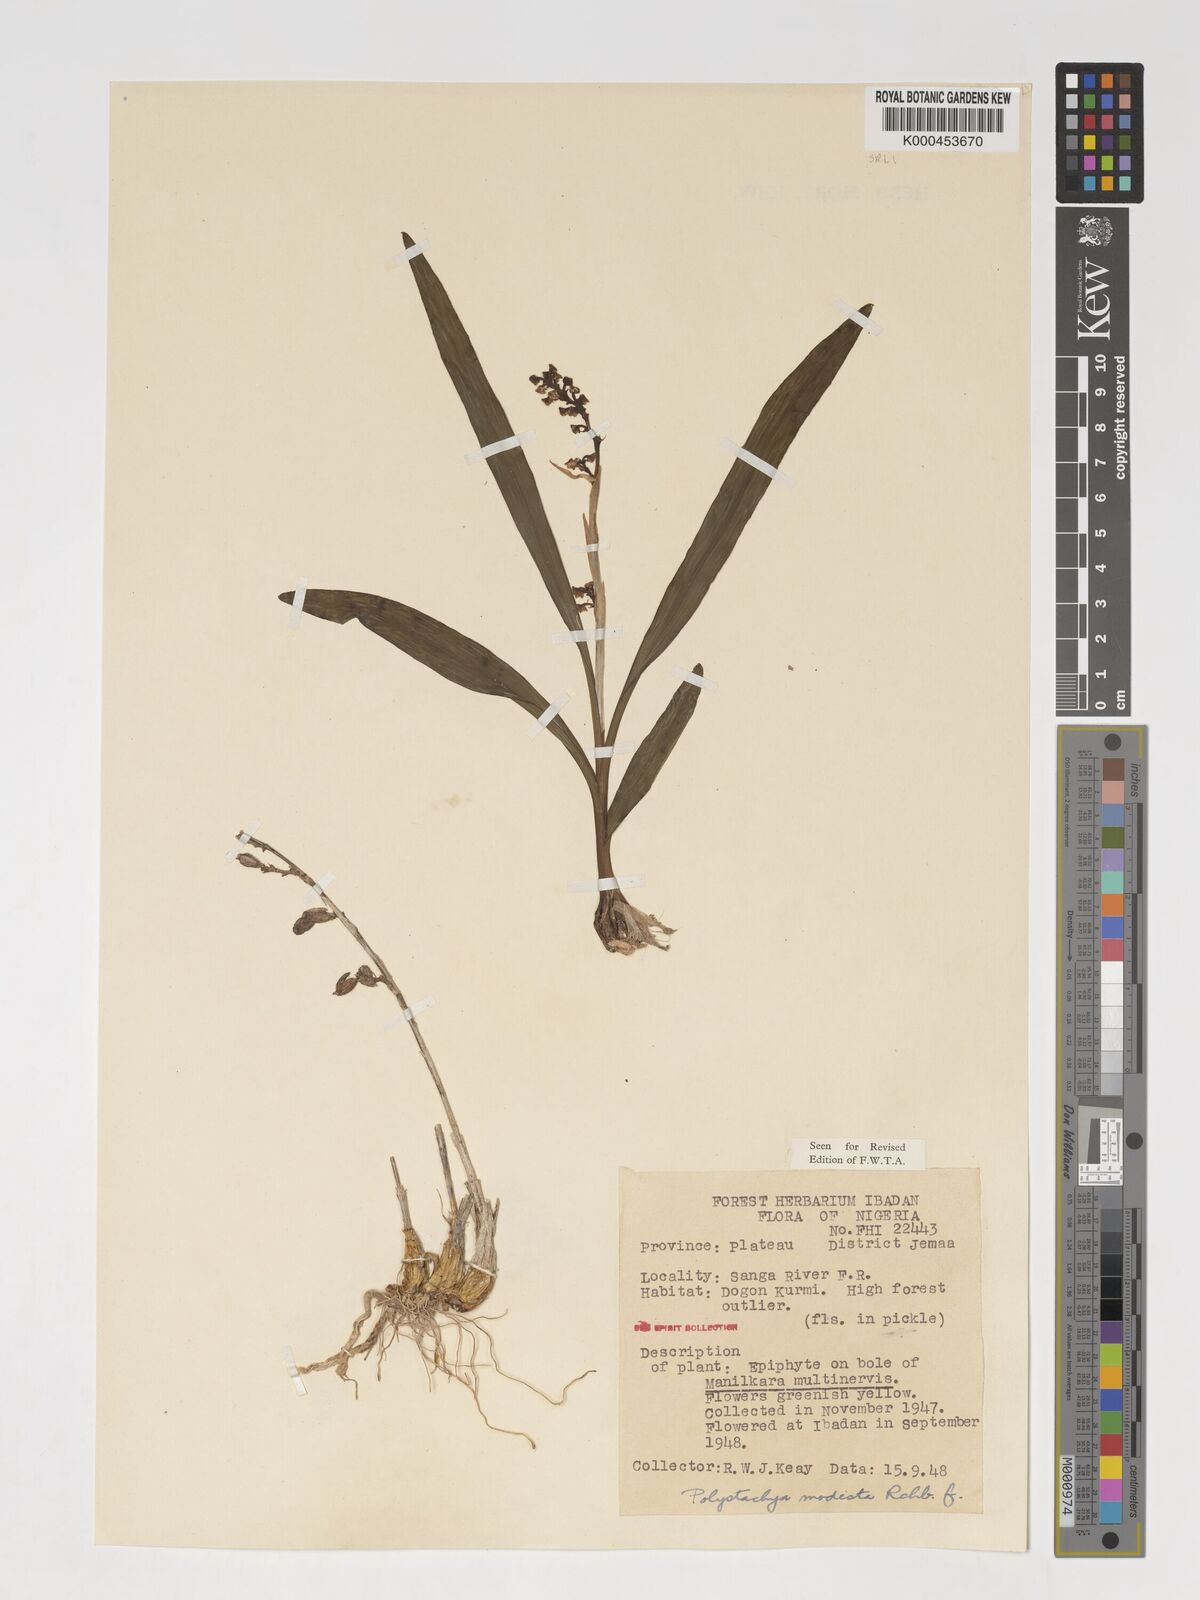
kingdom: Plantae
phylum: Tracheophyta
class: Liliopsida
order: Asparagales
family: Orchidaceae
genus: Polystachya
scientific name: Polystachya modesta
